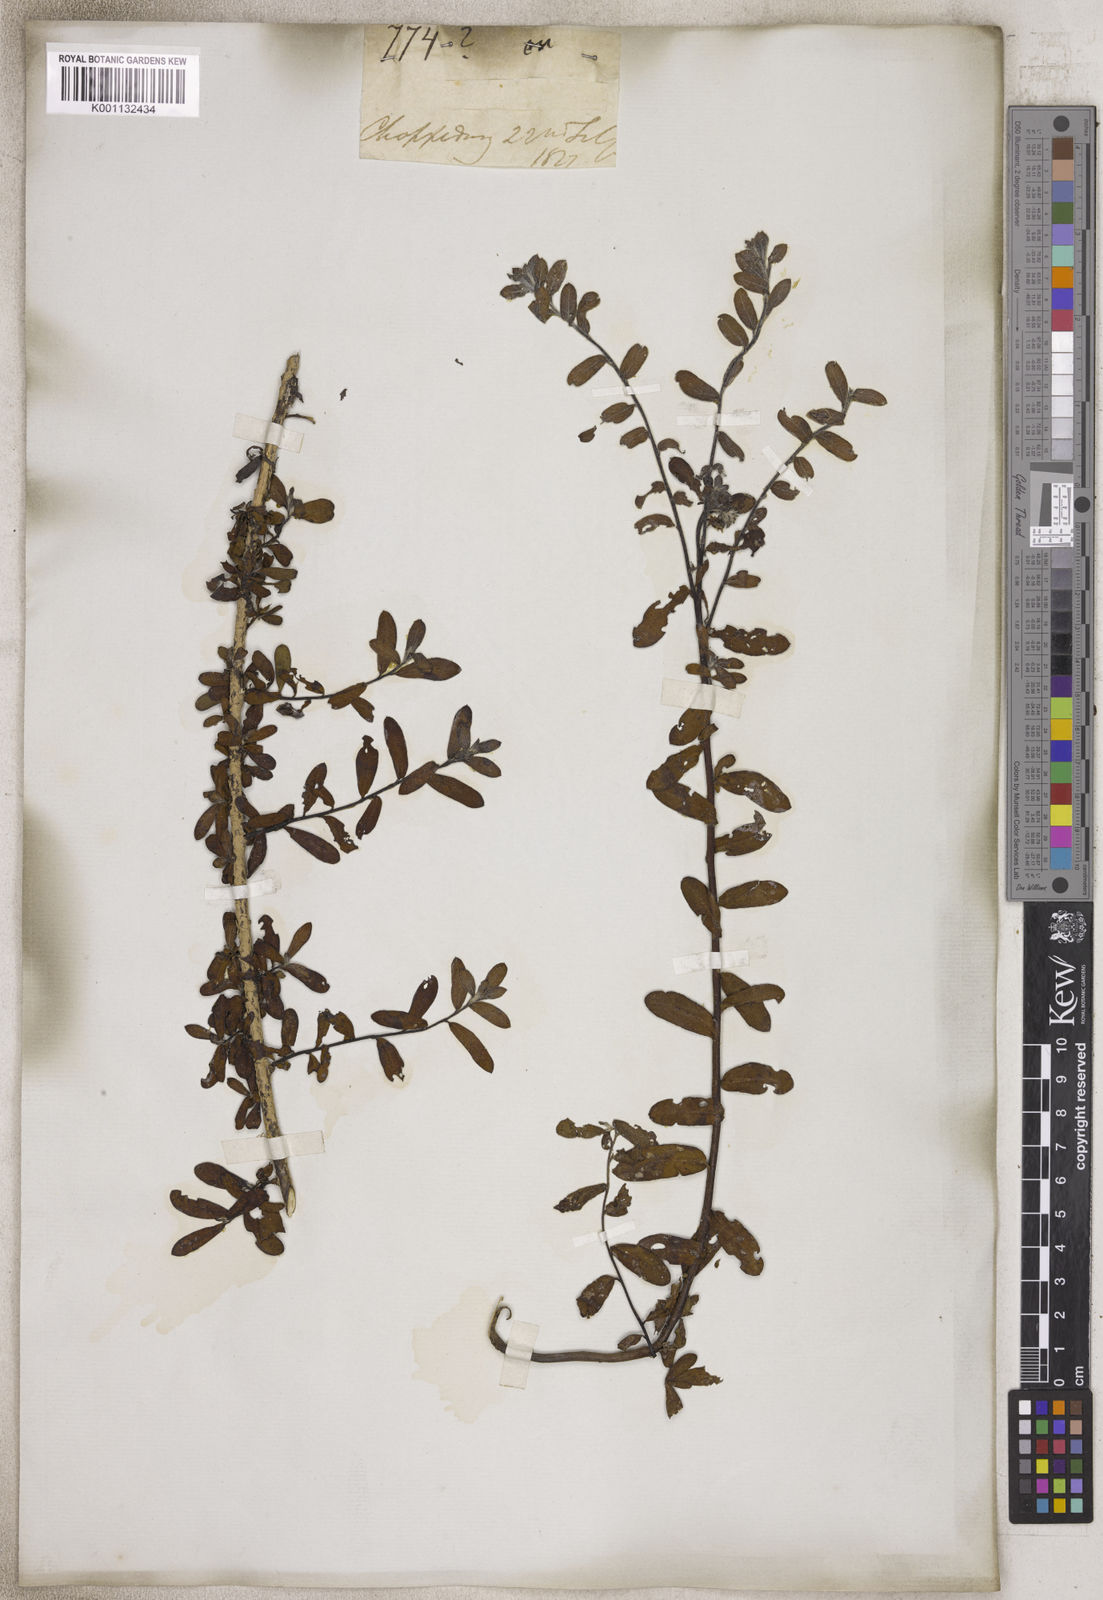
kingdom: Plantae
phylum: Tracheophyta
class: Magnoliopsida
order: Boraginales
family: Boraginaceae
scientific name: Boraginaceae
